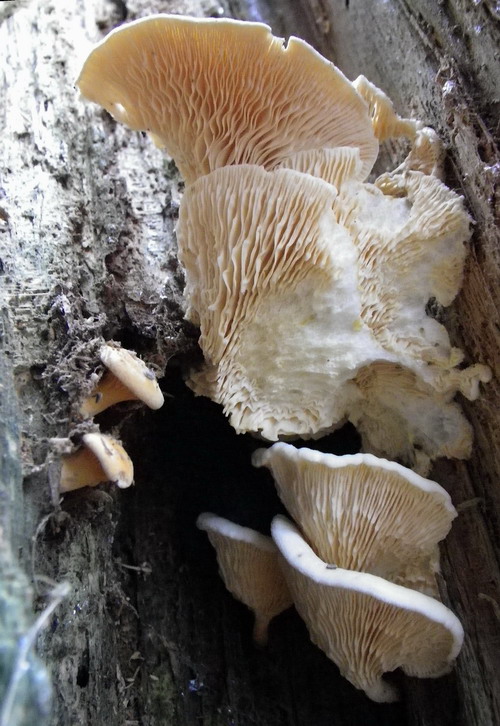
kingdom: Fungi
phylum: Basidiomycota
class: Agaricomycetes
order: Boletales
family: Hygrophoropsidaceae
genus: Hygrophoropsis
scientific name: Hygrophoropsis aurantiaca
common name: almindelig orangekantarel
